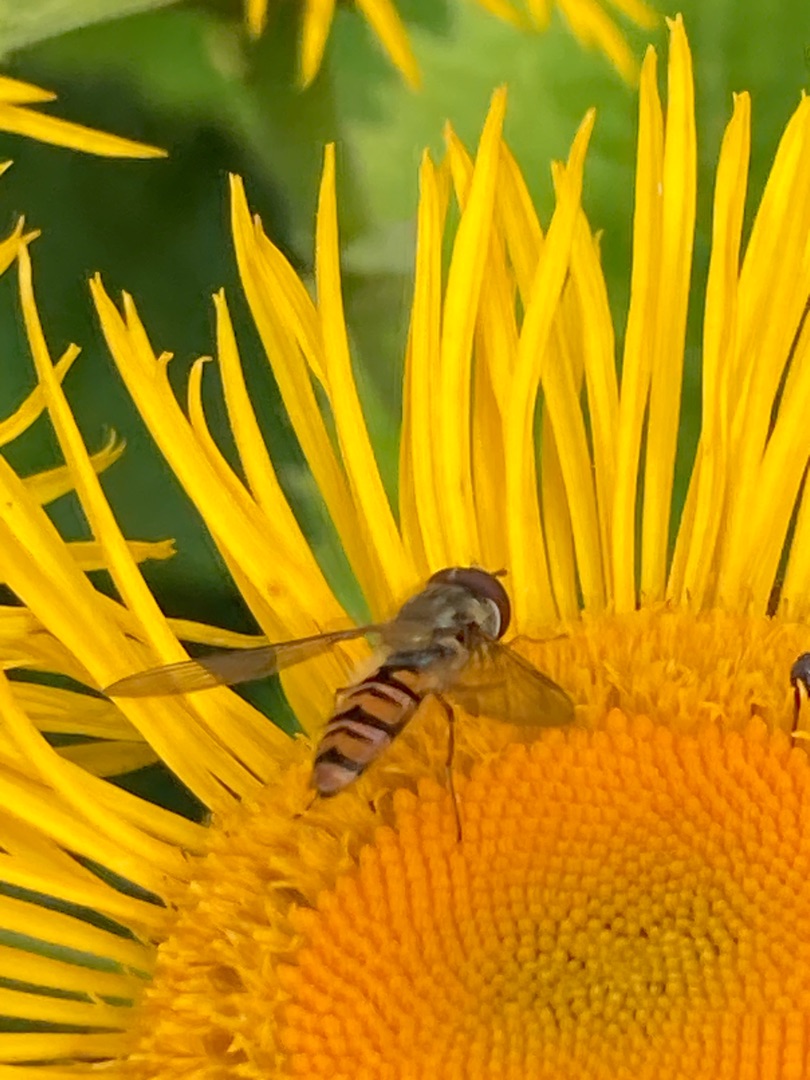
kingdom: Animalia
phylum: Arthropoda
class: Insecta
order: Diptera
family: Syrphidae
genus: Episyrphus
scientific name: Episyrphus balteatus
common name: Dobbeltbåndet svirreflue
